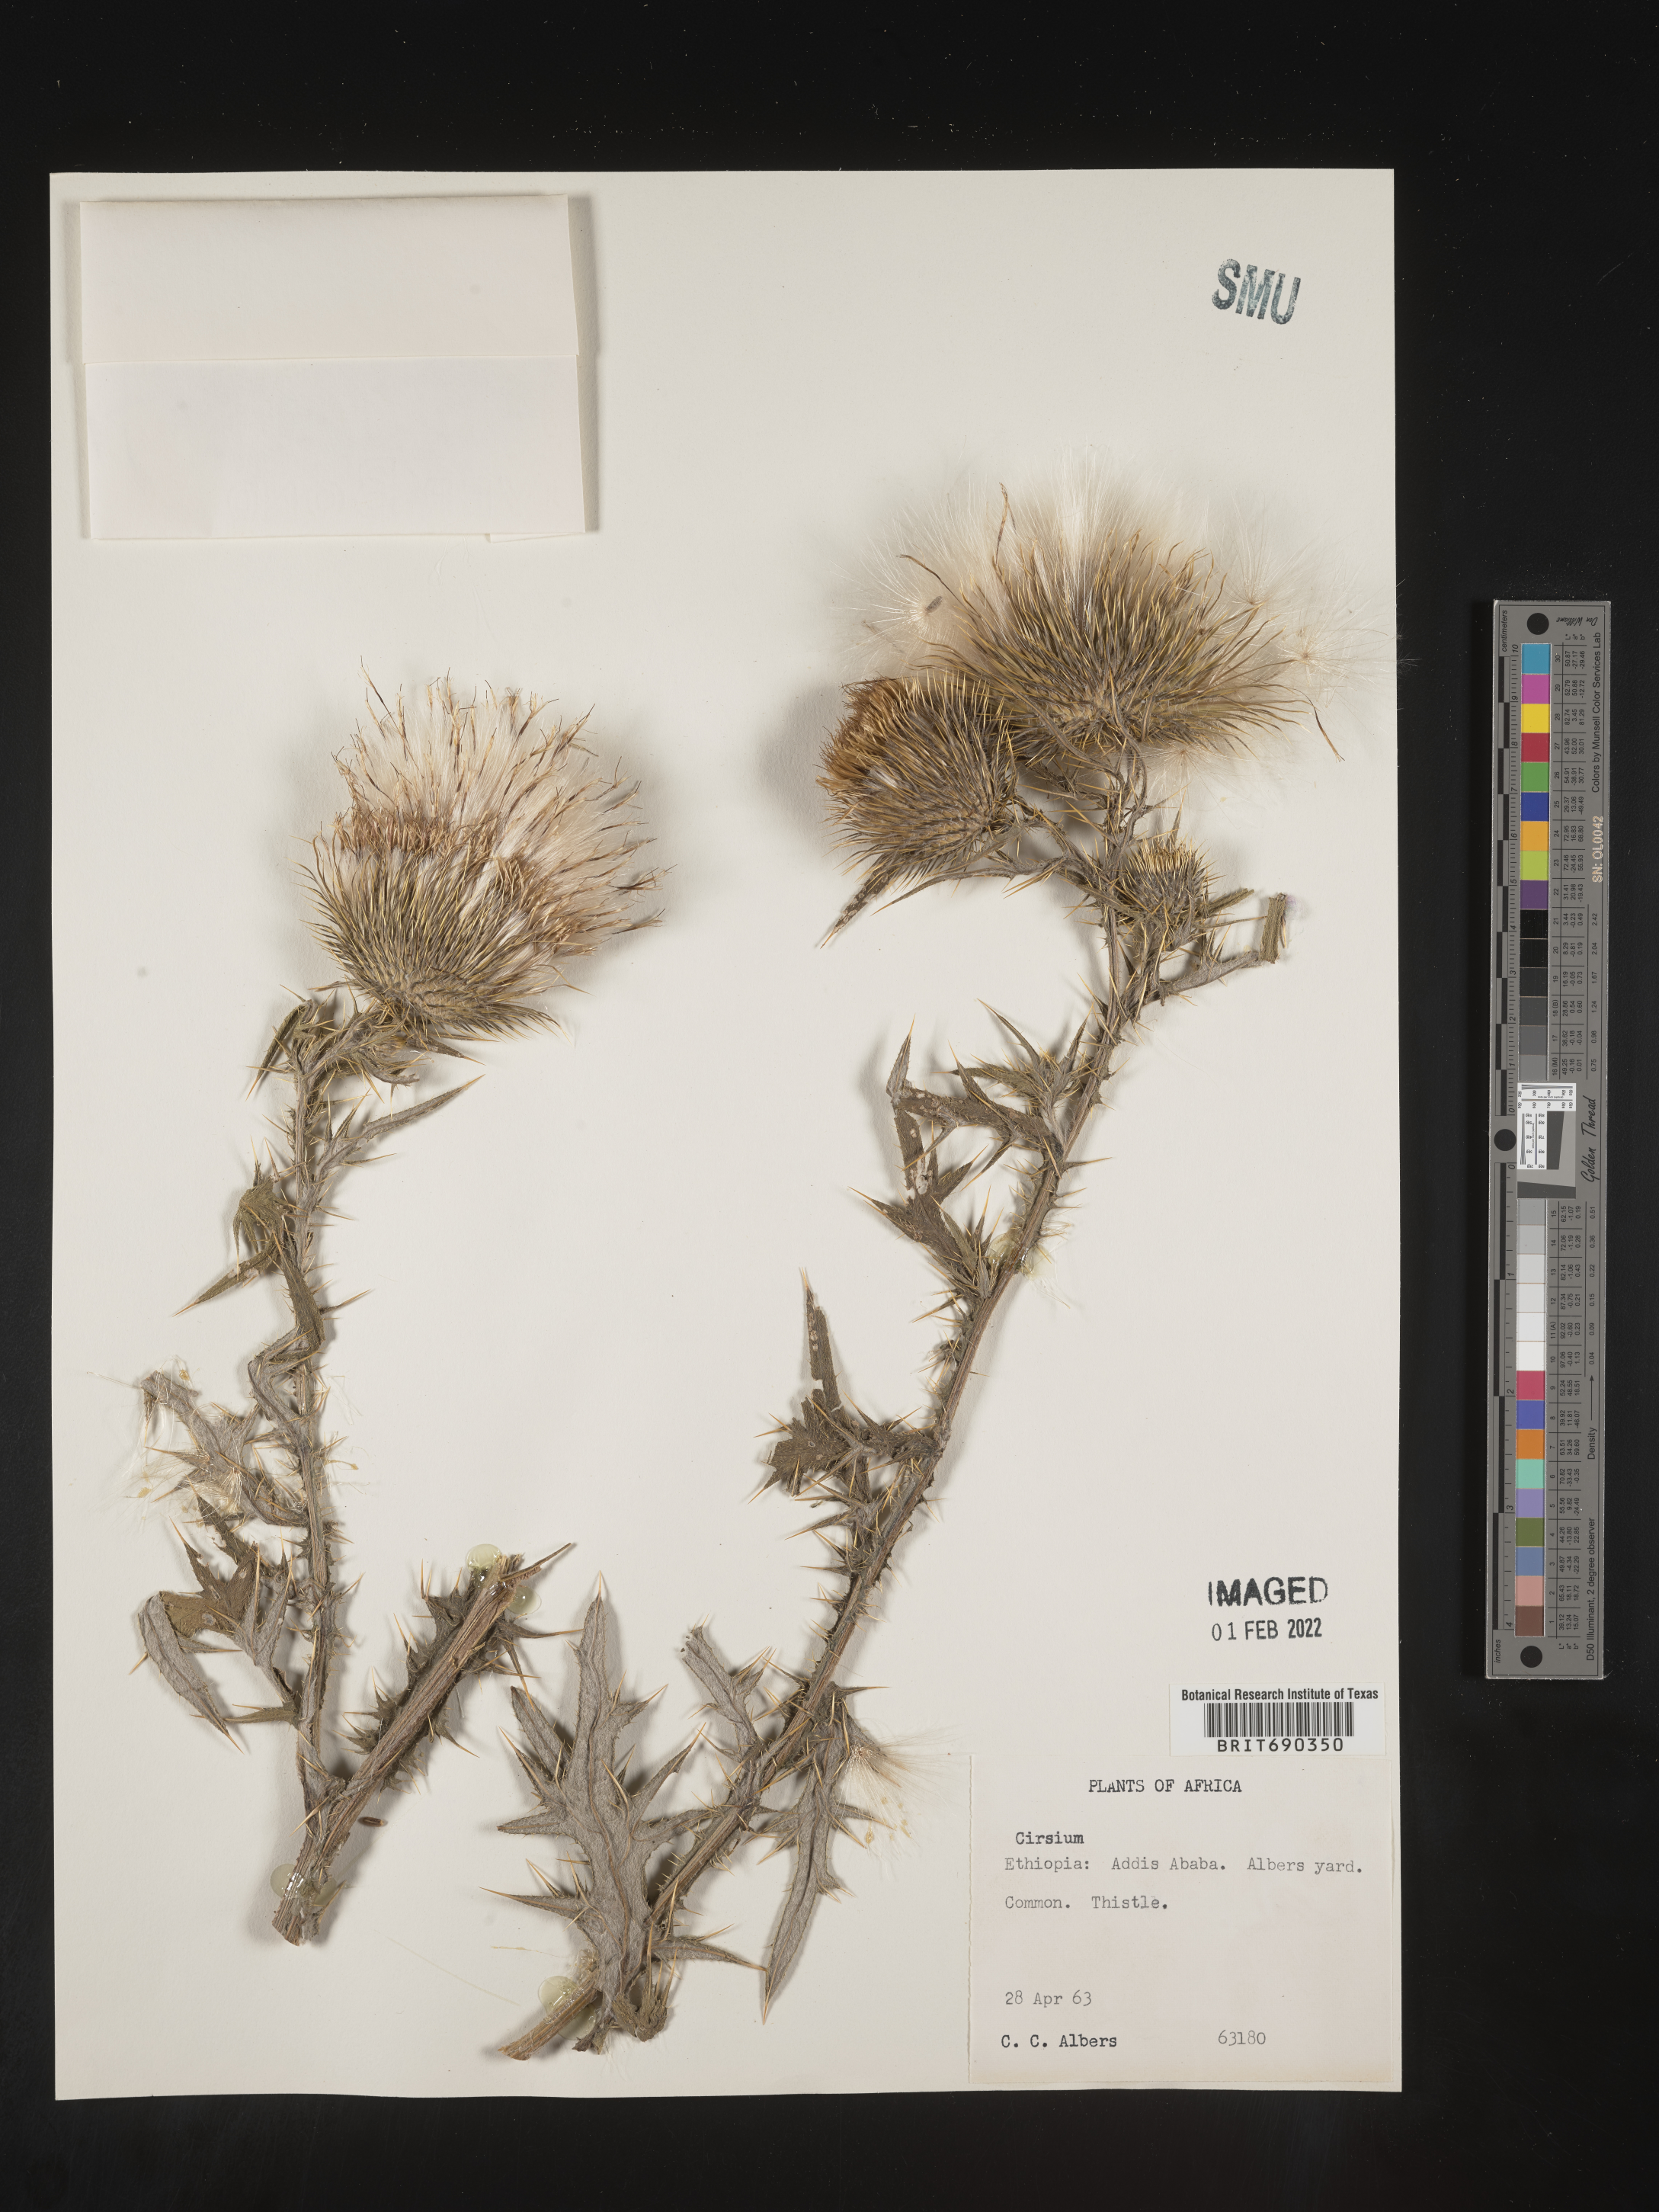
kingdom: Plantae
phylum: Tracheophyta
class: Magnoliopsida
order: Asterales
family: Asteraceae
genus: Cirsium
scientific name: Cirsium
